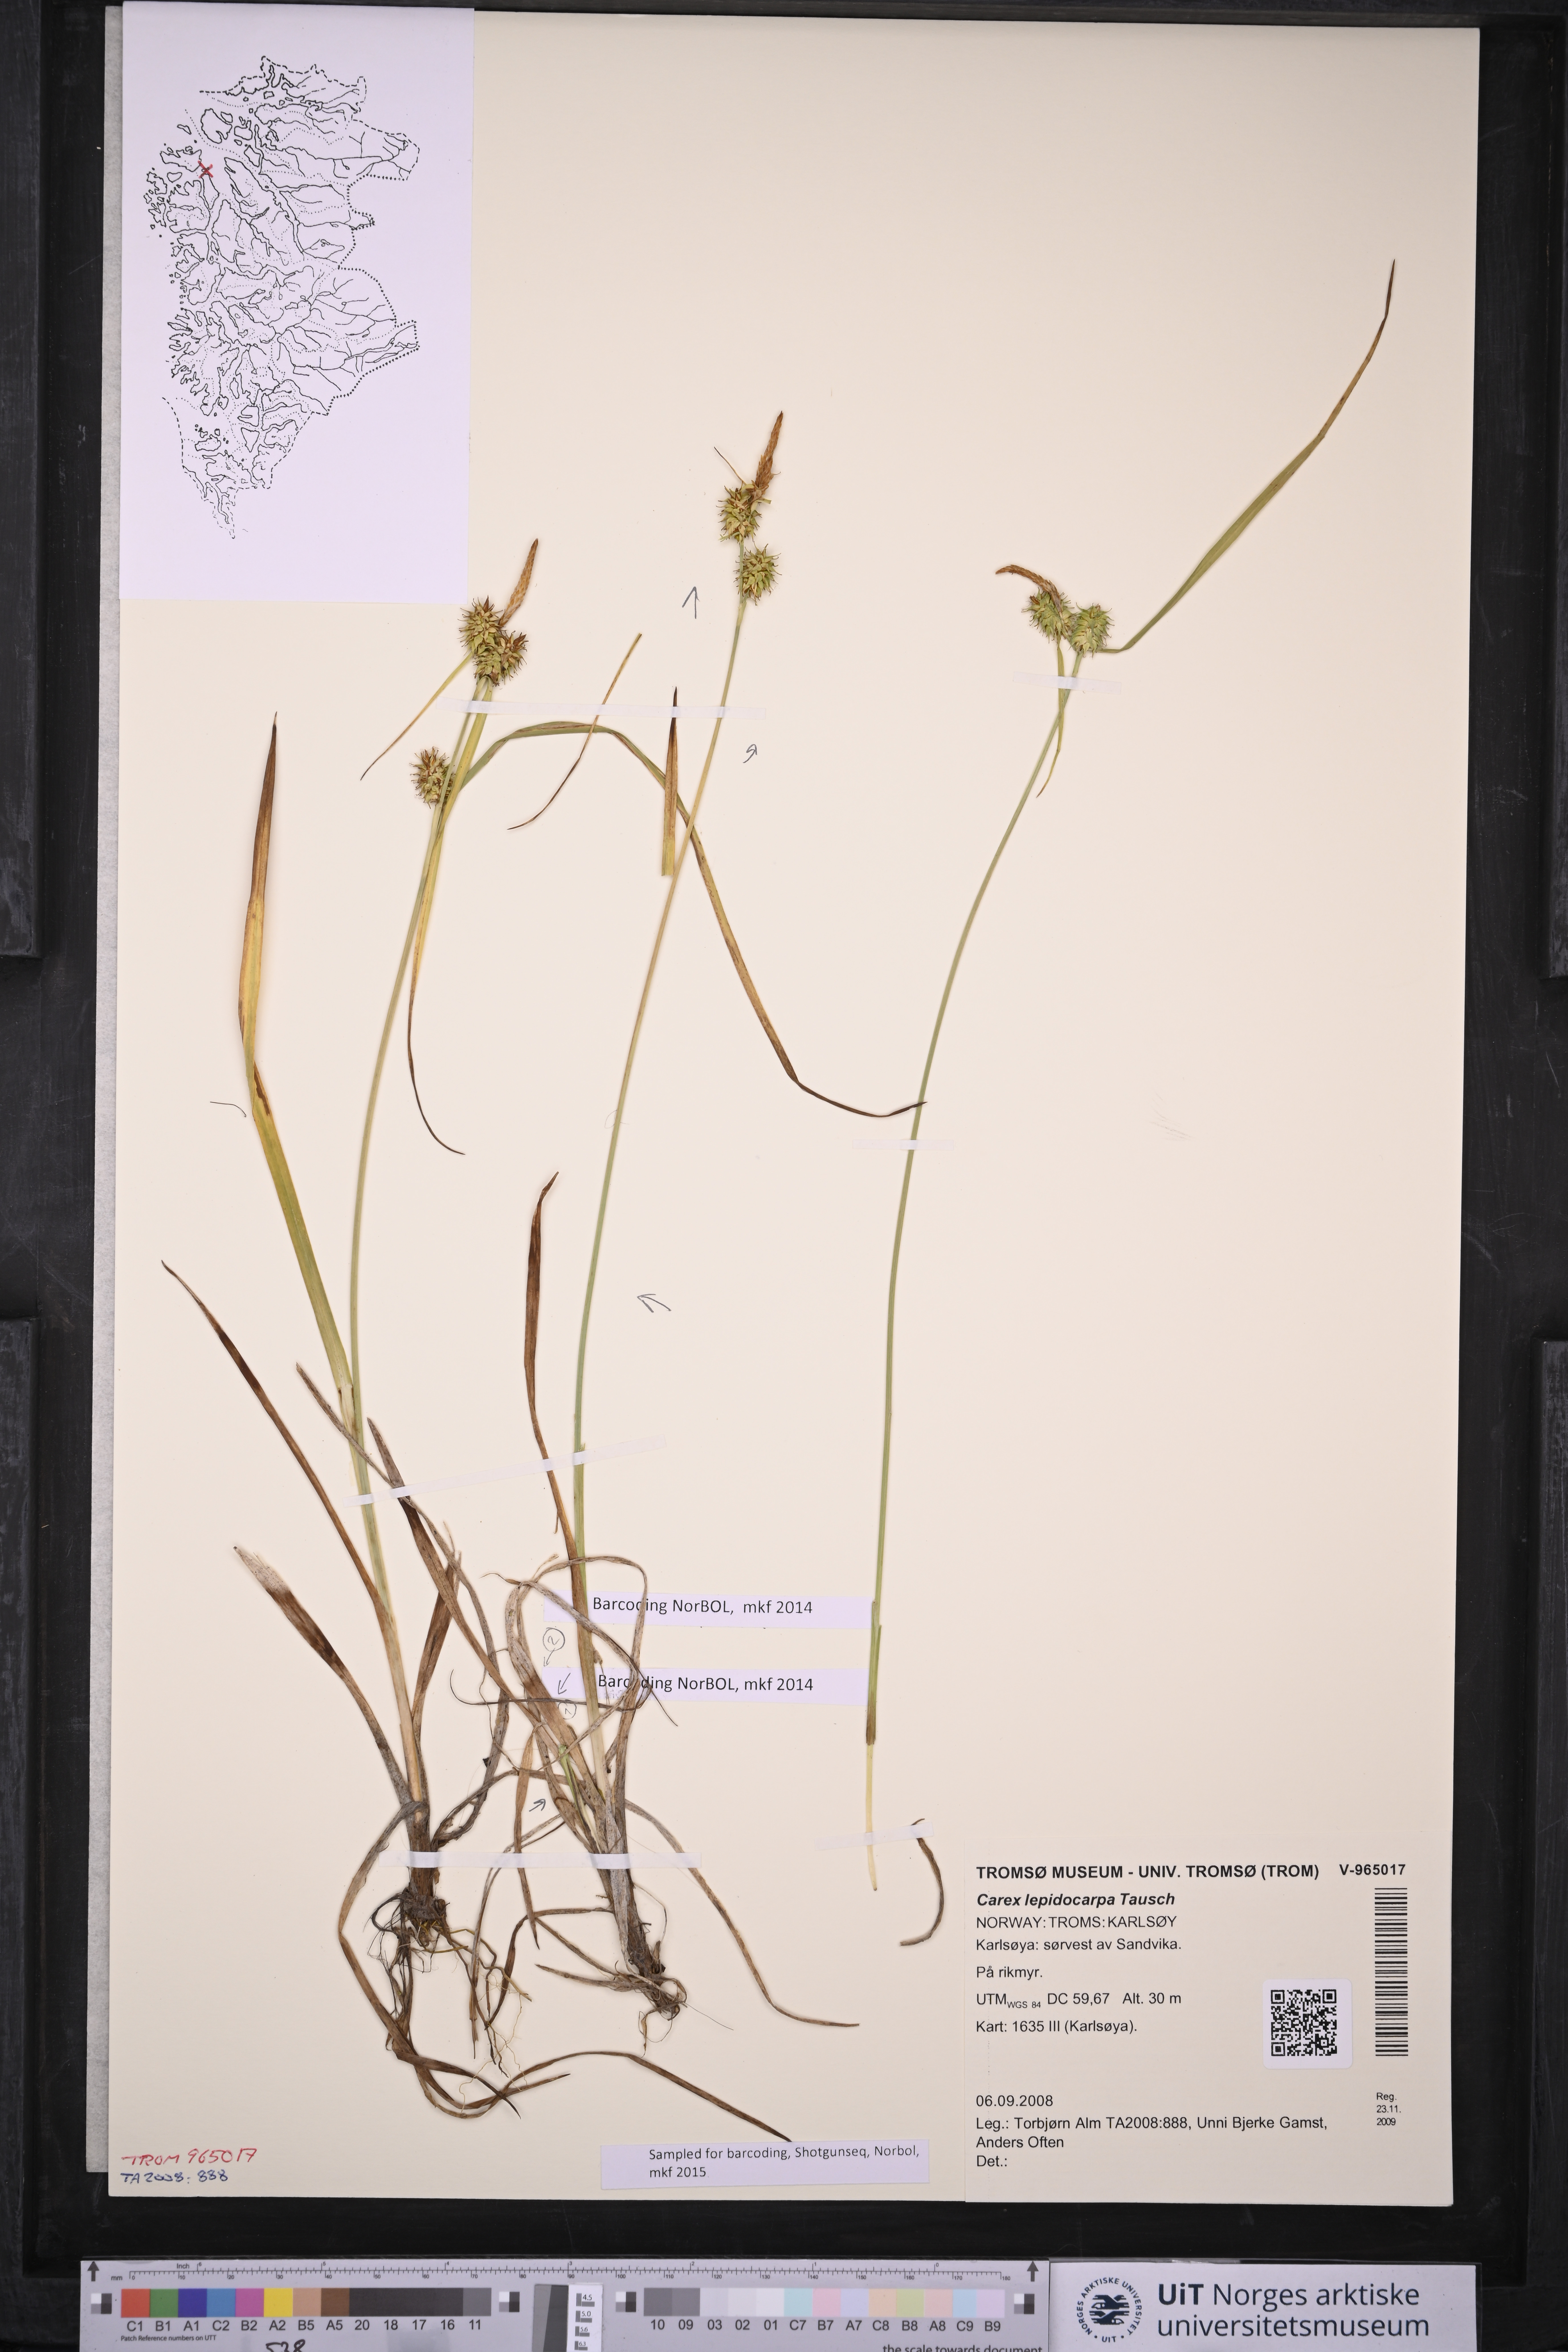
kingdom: Plantae
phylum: Tracheophyta
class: Liliopsida
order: Poales
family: Cyperaceae
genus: Carex
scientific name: Carex lepidocarpa
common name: Long-stalked yellow-sedge
